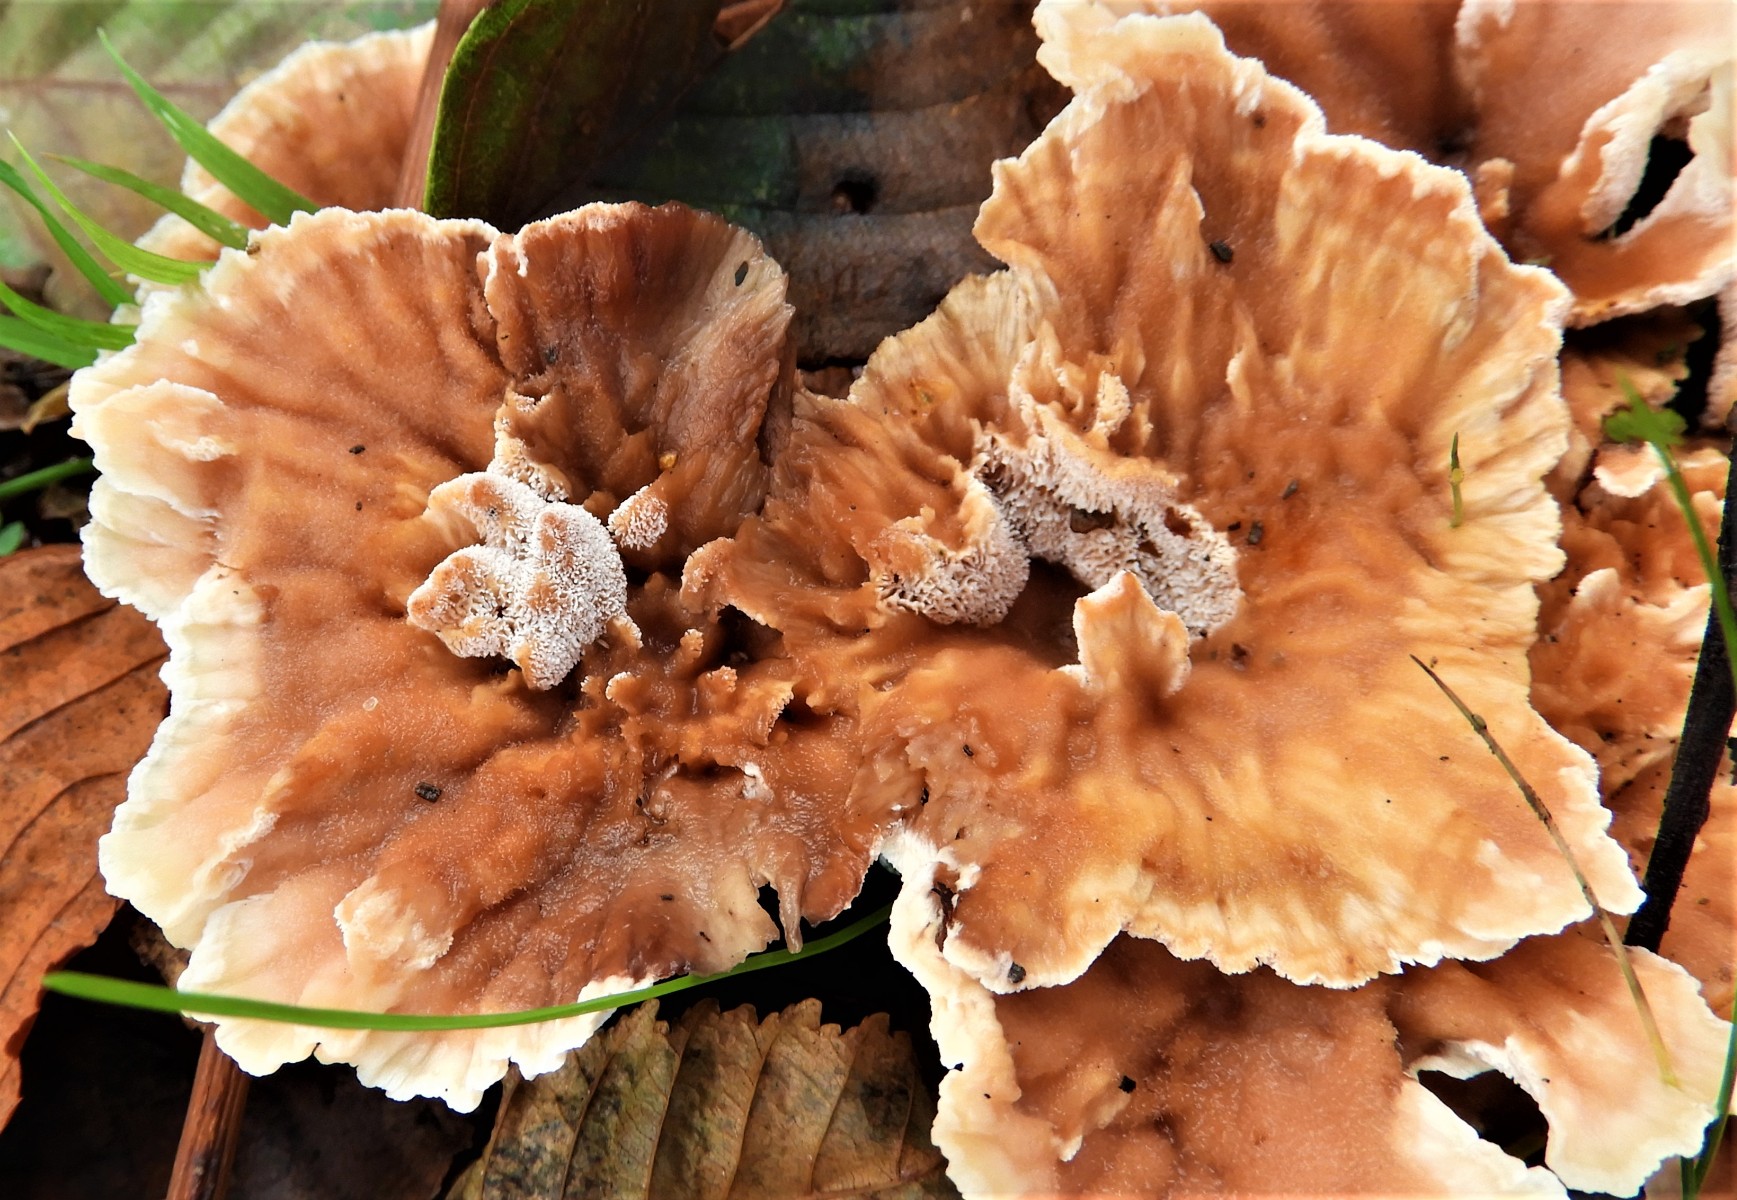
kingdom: Fungi
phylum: Basidiomycota
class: Agaricomycetes
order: Polyporales
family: Podoscyphaceae
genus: Abortiporus
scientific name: Abortiporus biennis
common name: rødmende pjalteporesvamp
